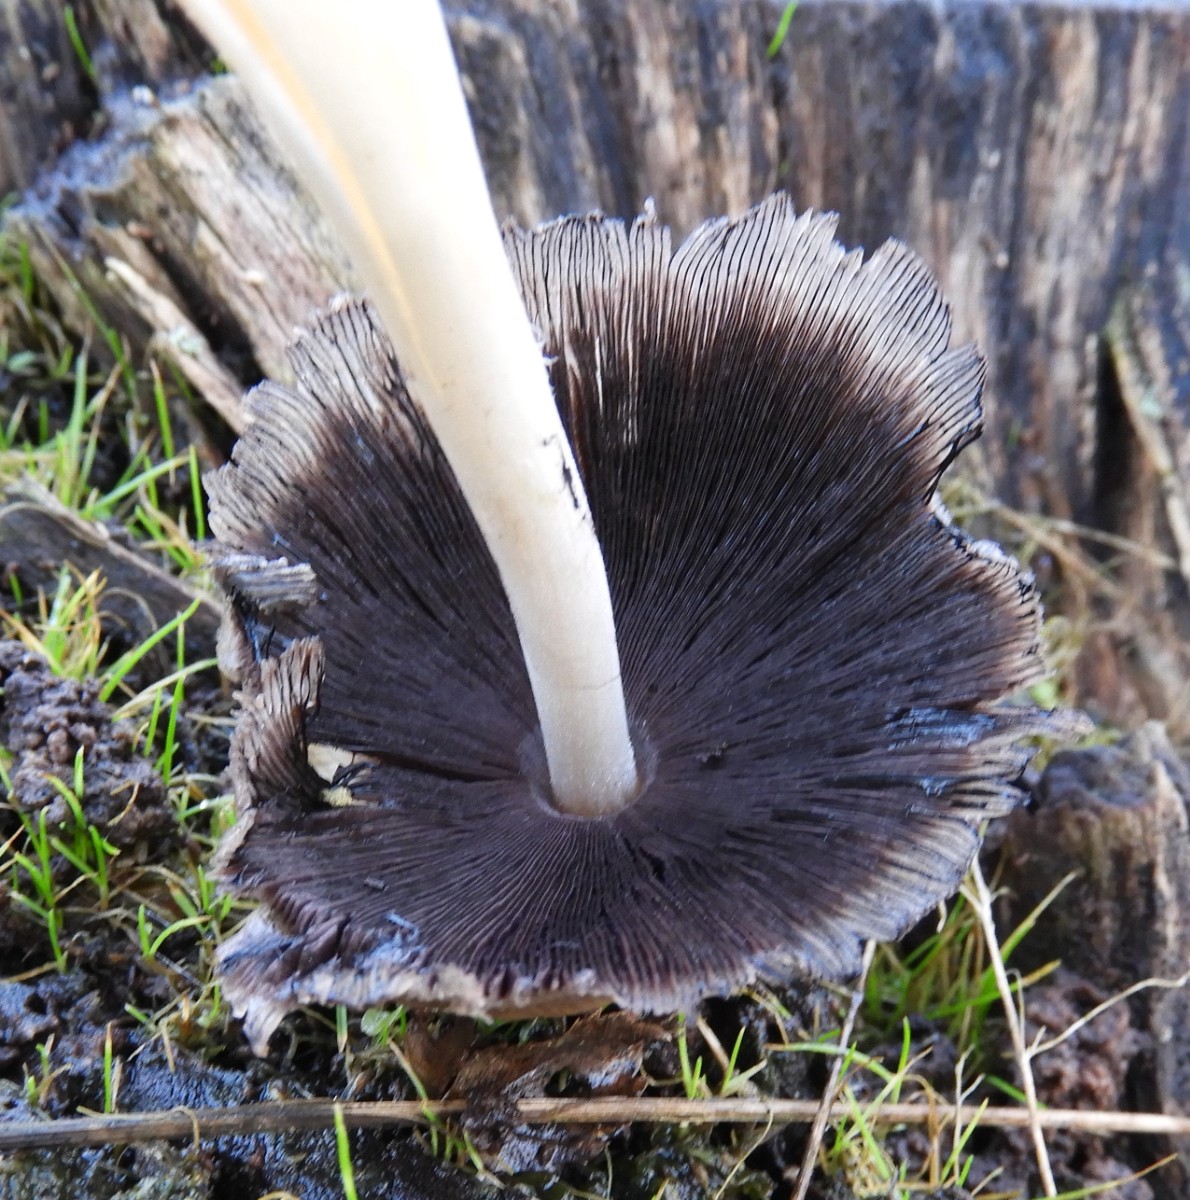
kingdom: Fungi
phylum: Basidiomycota
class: Agaricomycetes
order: Agaricales
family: Psathyrellaceae
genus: Coprinellus
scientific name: Coprinellus
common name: blækhat
